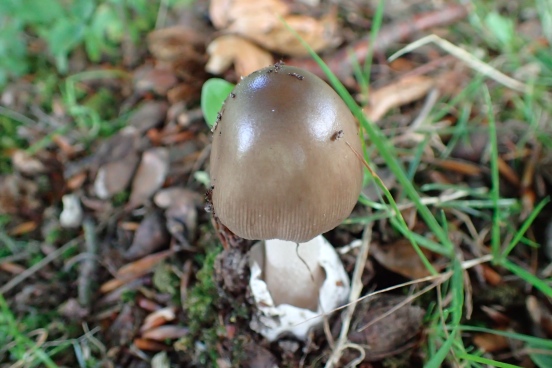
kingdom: Fungi
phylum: Basidiomycota
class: Agaricomycetes
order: Agaricales
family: Amanitaceae
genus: Amanita
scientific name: Amanita vaginata
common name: grå kam-fluesvamp
